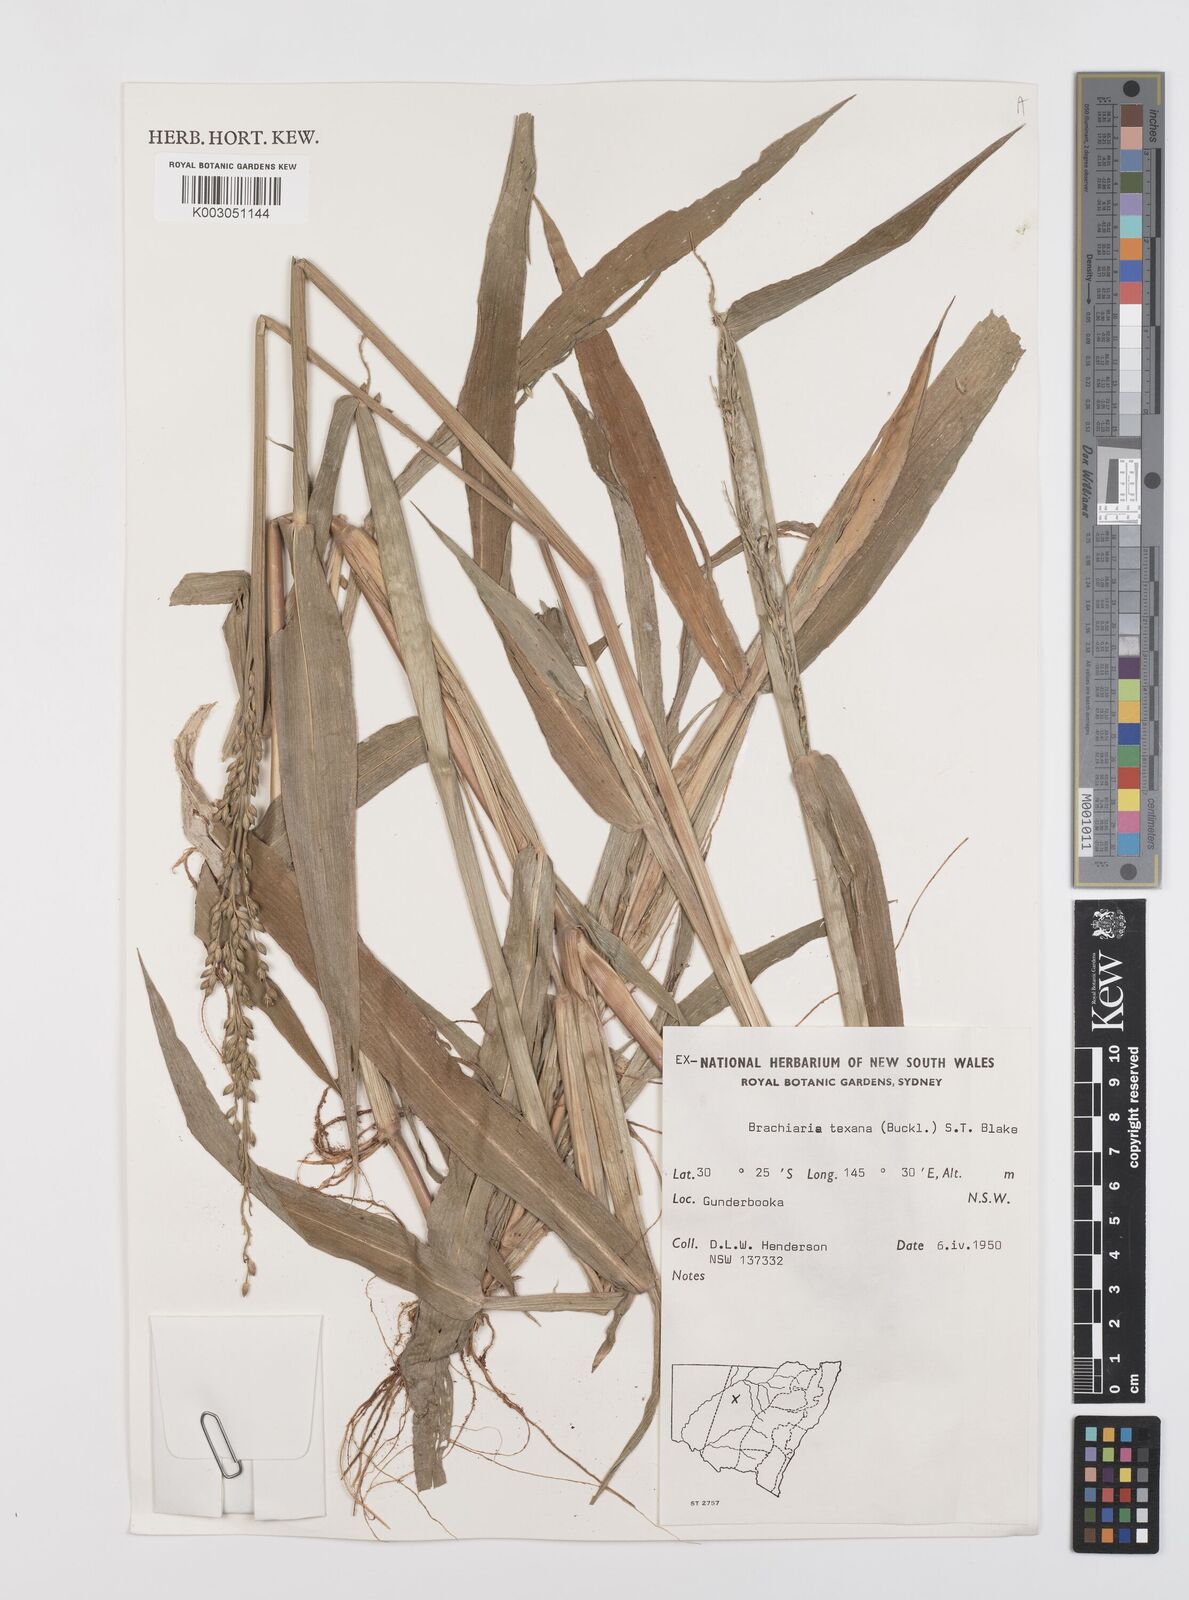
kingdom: Plantae
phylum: Tracheophyta
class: Liliopsida
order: Poales
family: Poaceae
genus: Urochloa
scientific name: Urochloa texana
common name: Texas millet
